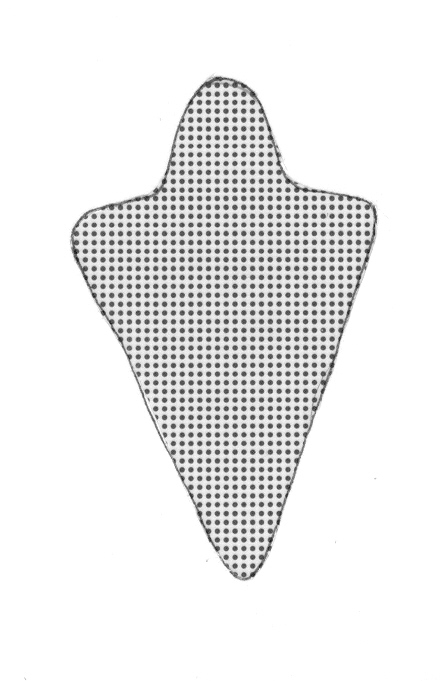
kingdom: Animalia
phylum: Chordata
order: Perciformes
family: Serranidae
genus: Odontanthias
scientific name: Odontanthias fuscipinnis
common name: Hawaiian deep anthias
